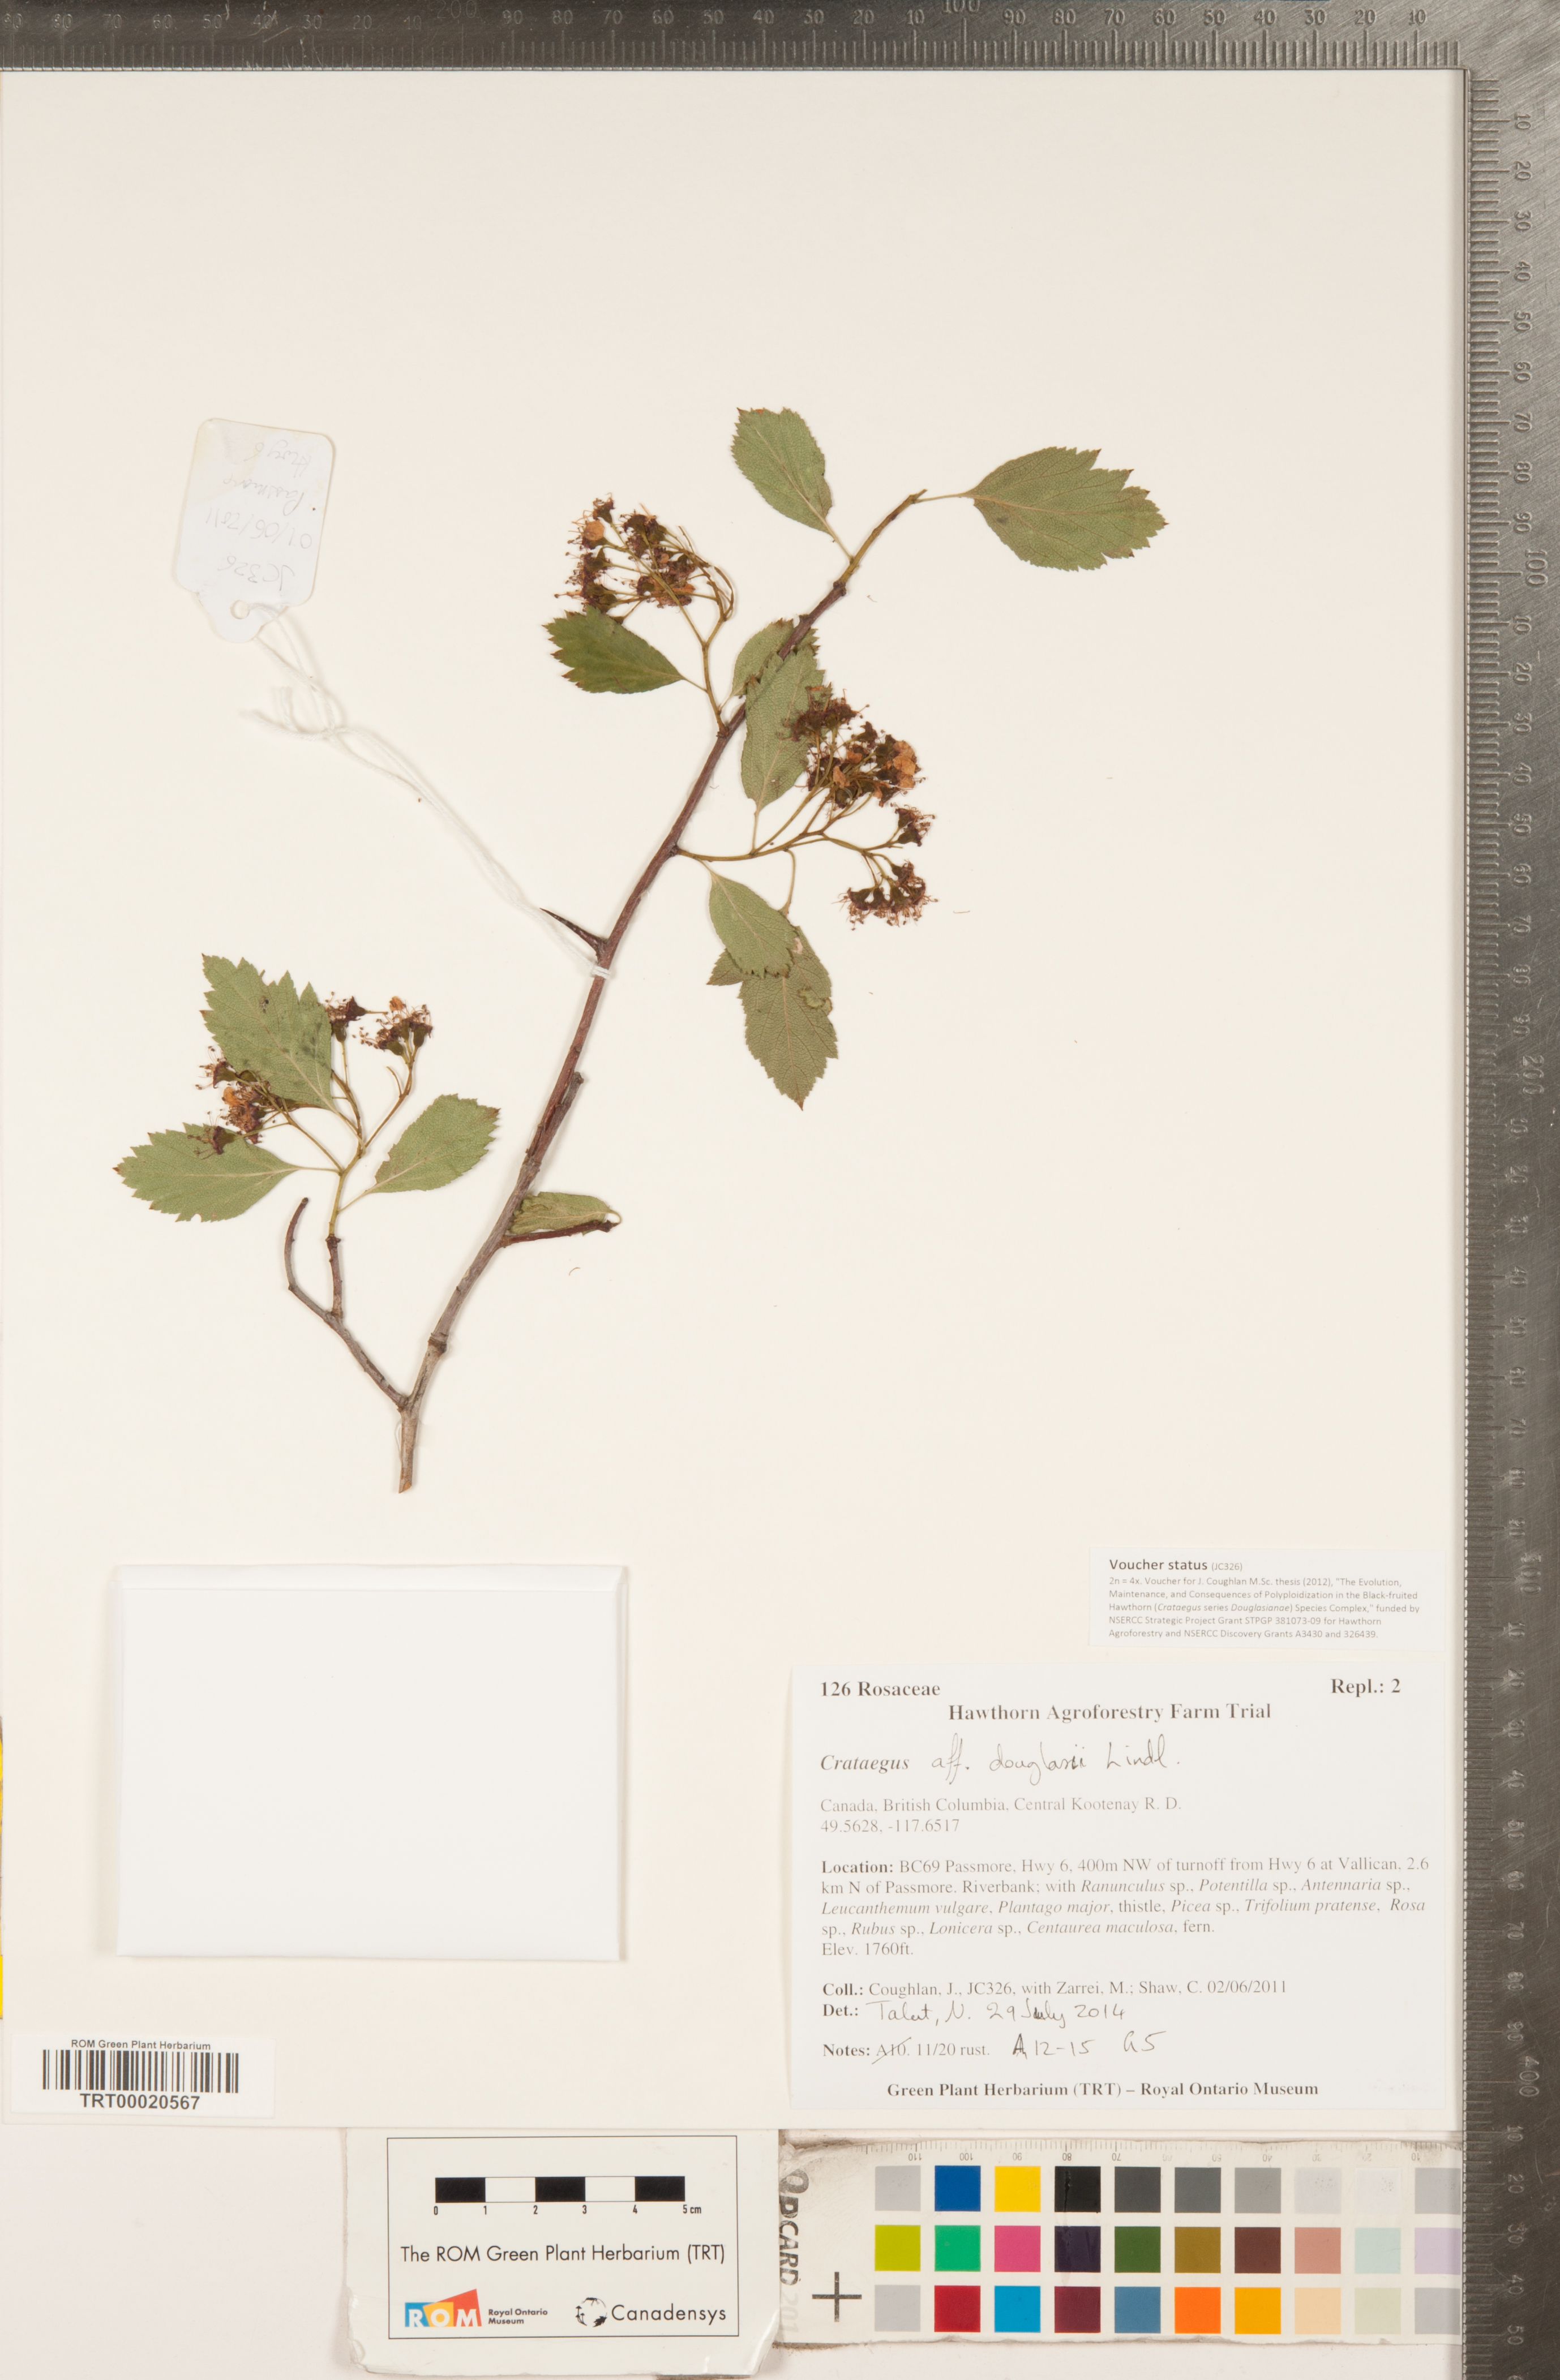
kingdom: Plantae
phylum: Tracheophyta
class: Magnoliopsida
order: Rosales
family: Rosaceae
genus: Crataegus
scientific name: Crataegus douglasii
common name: Black hawthorn
